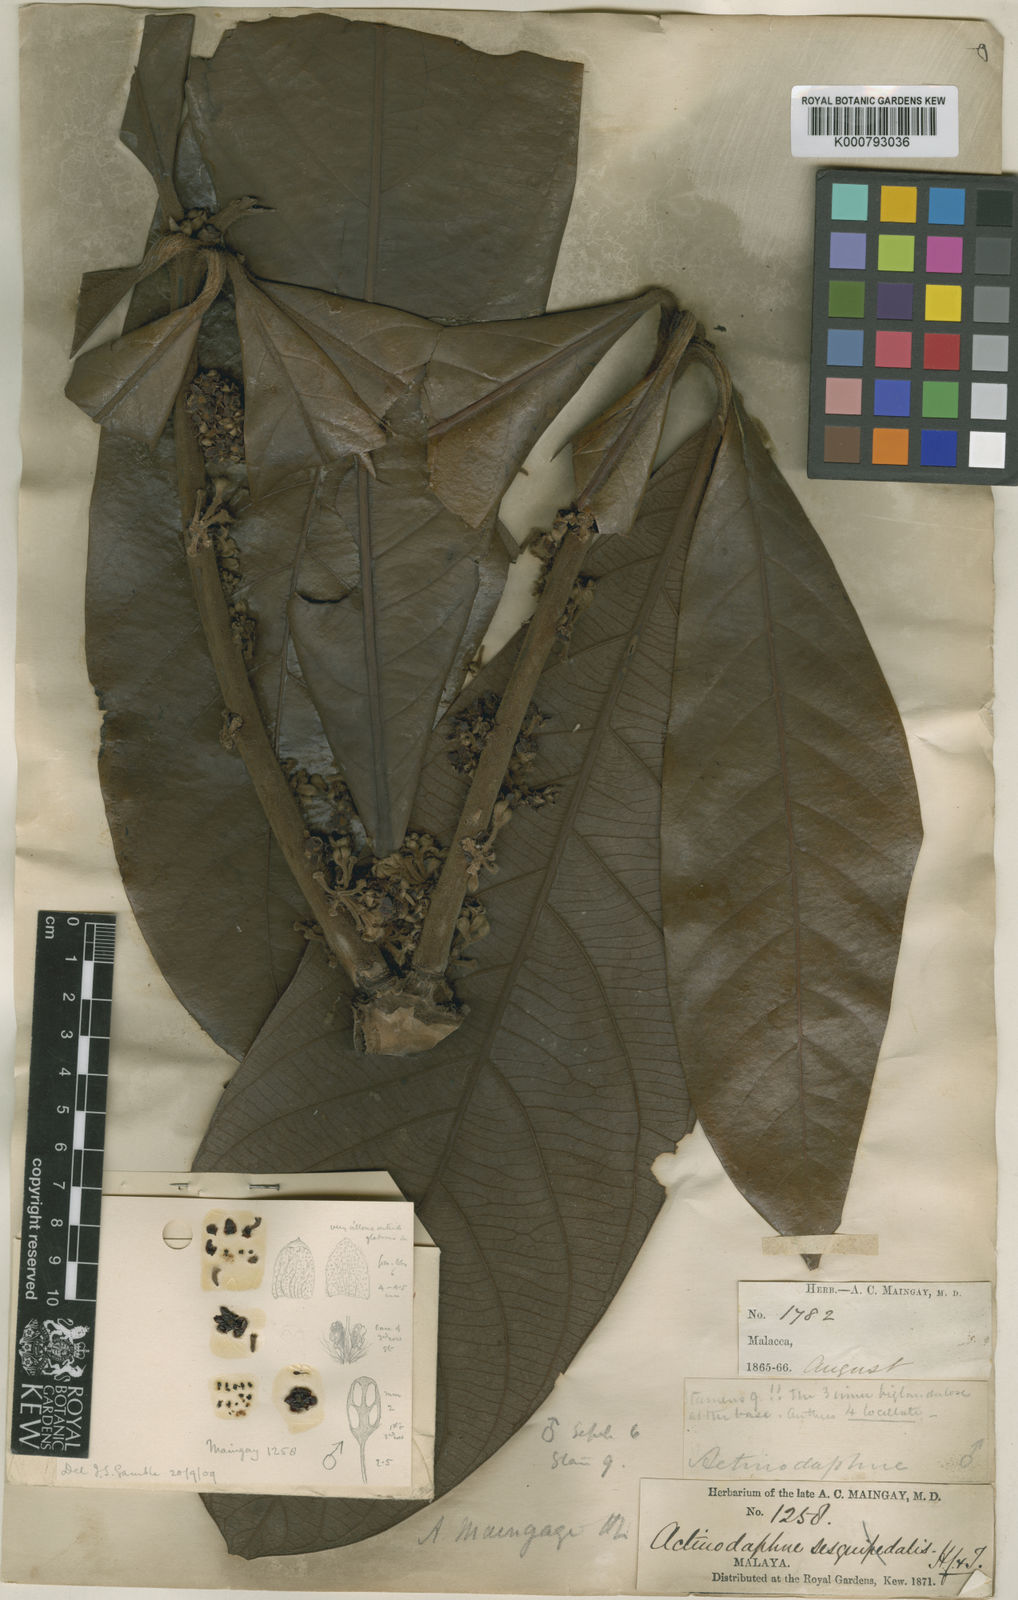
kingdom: Plantae
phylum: Tracheophyta
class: Magnoliopsida
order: Laurales
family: Lauraceae
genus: Actinodaphne
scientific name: Actinodaphne macrophylla
